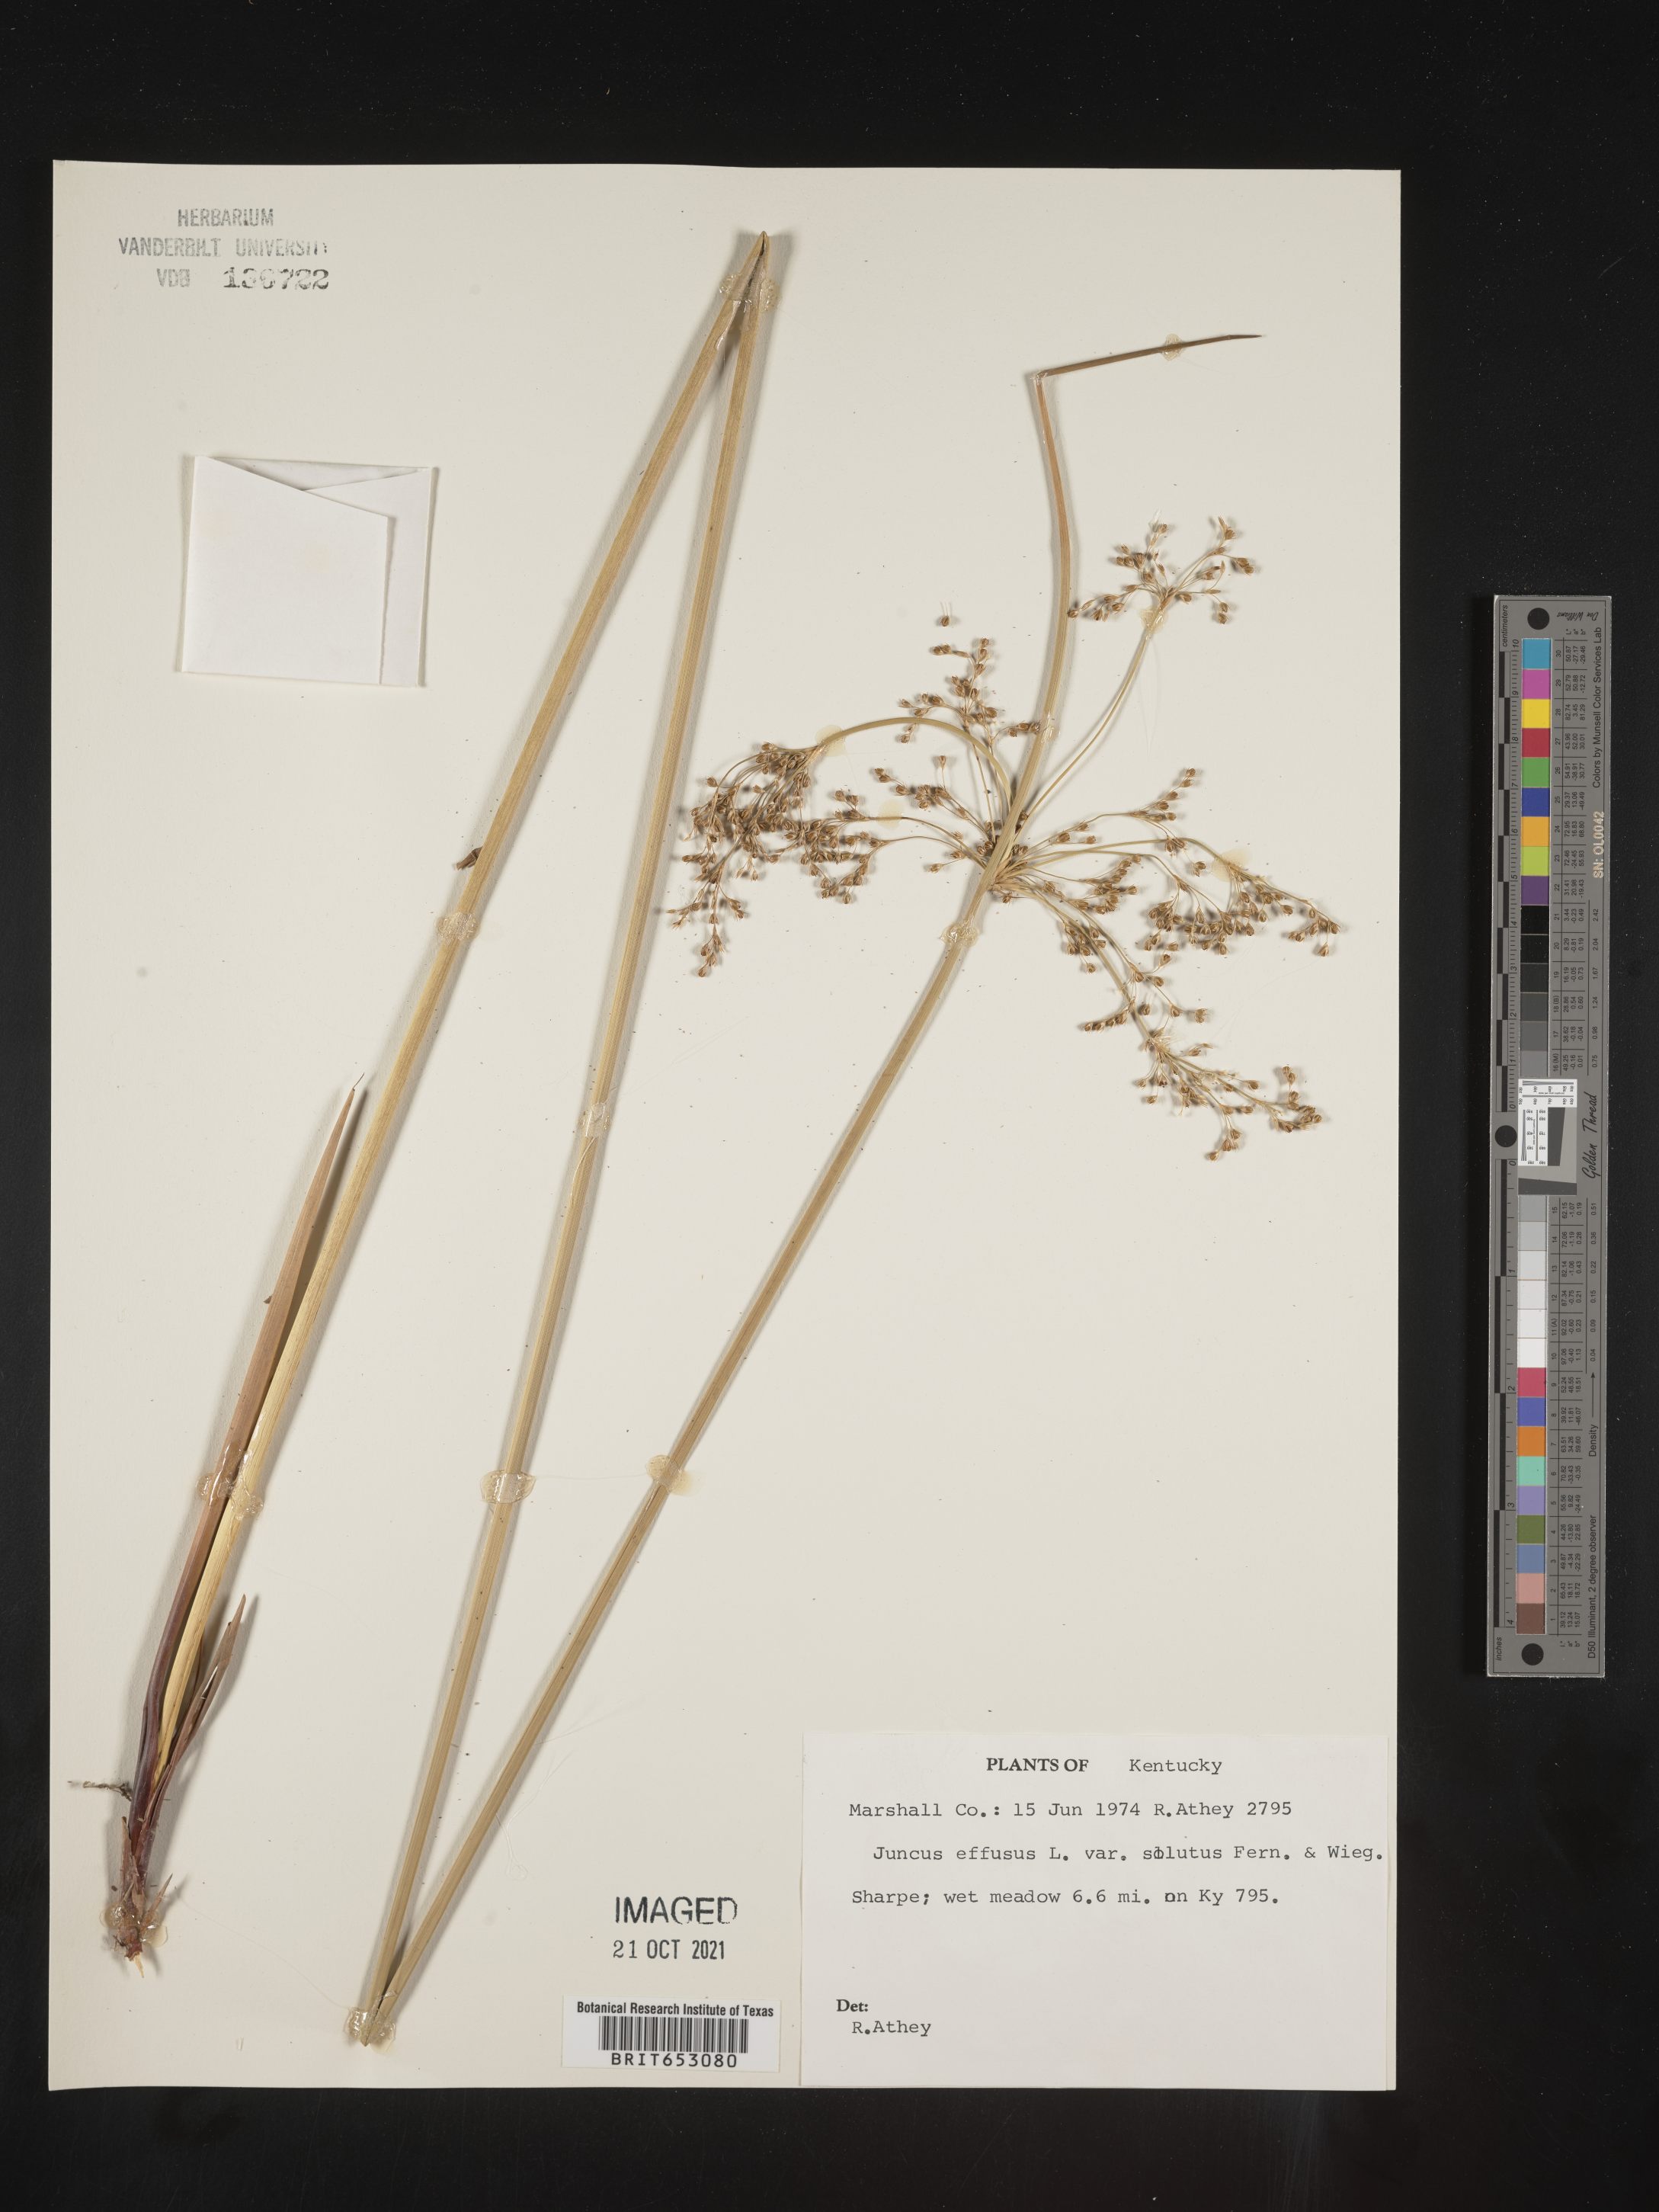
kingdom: Plantae
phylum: Tracheophyta
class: Liliopsida
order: Poales
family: Juncaceae
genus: Juncus
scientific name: Juncus effusus
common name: Soft rush
